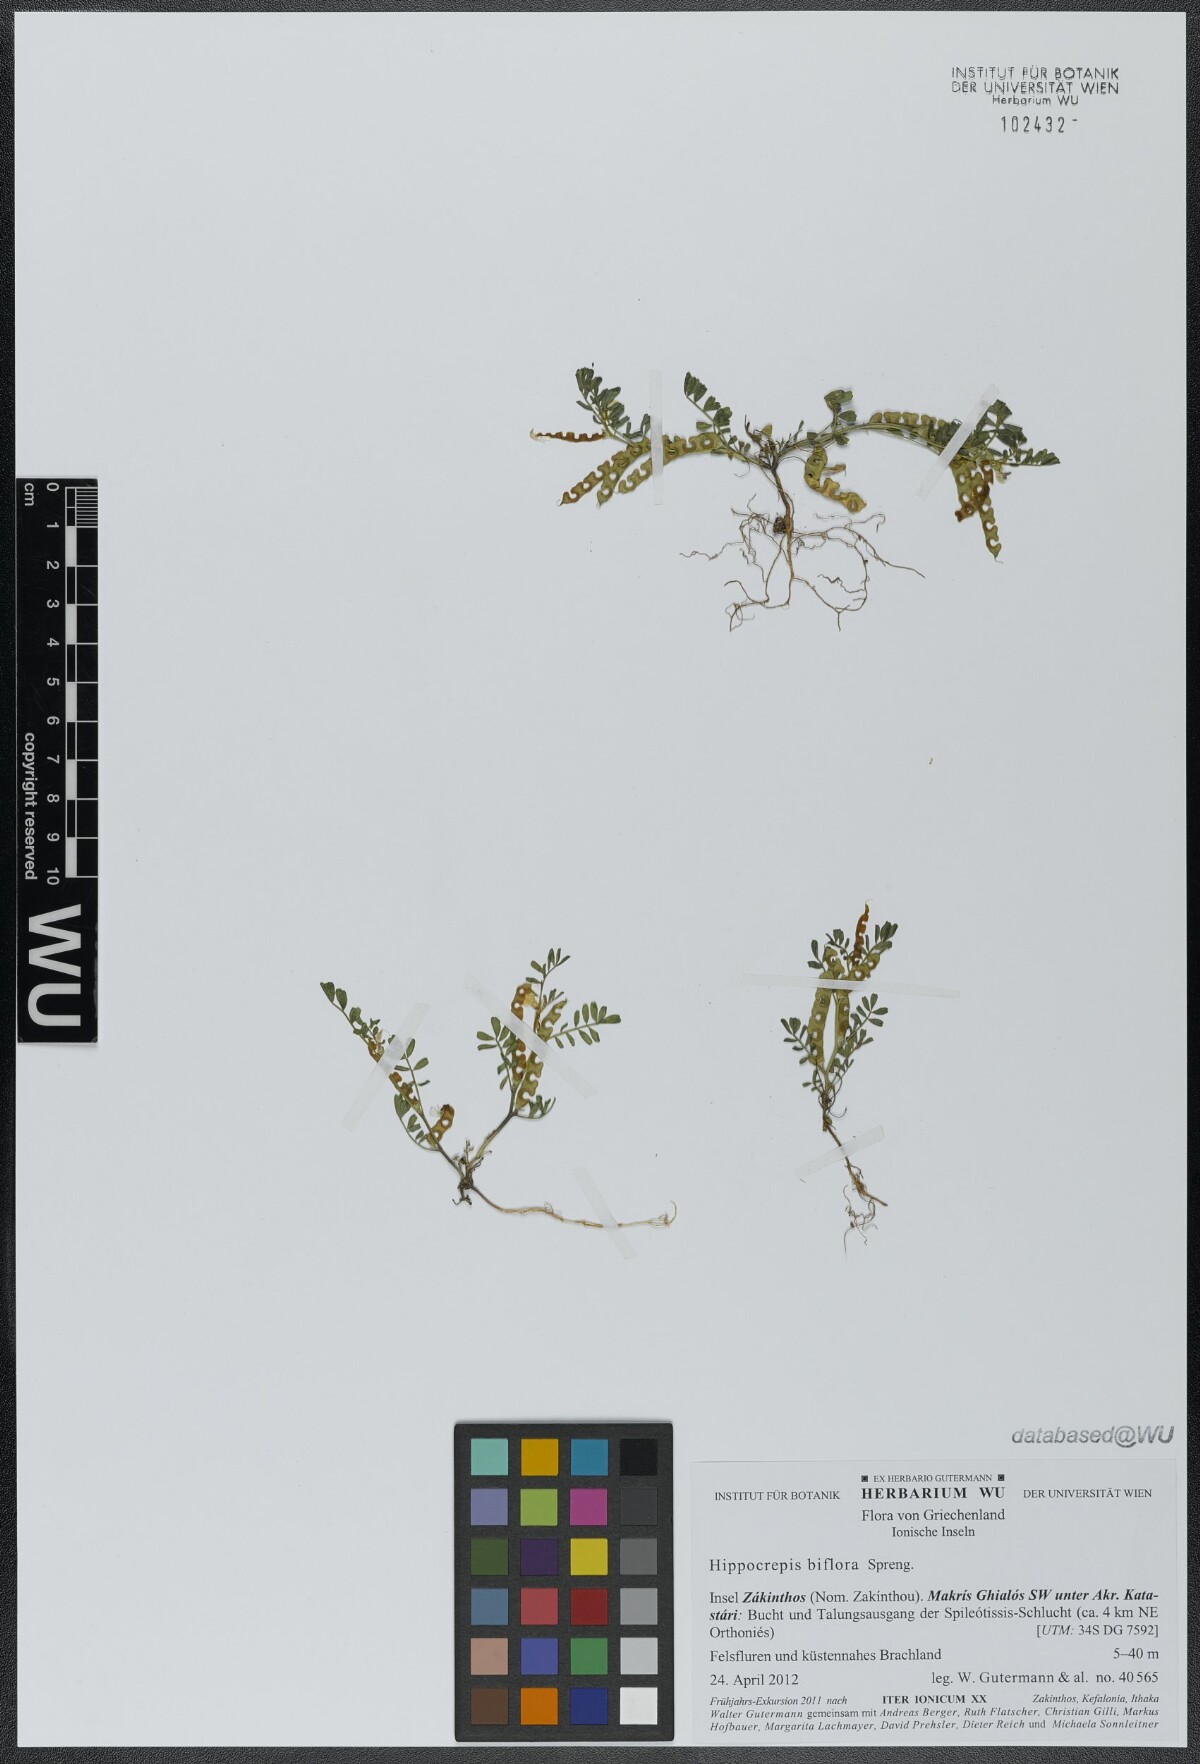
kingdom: Plantae
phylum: Tracheophyta
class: Magnoliopsida
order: Fabales
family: Fabaceae
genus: Hippocrepis
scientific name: Hippocrepis biflora
